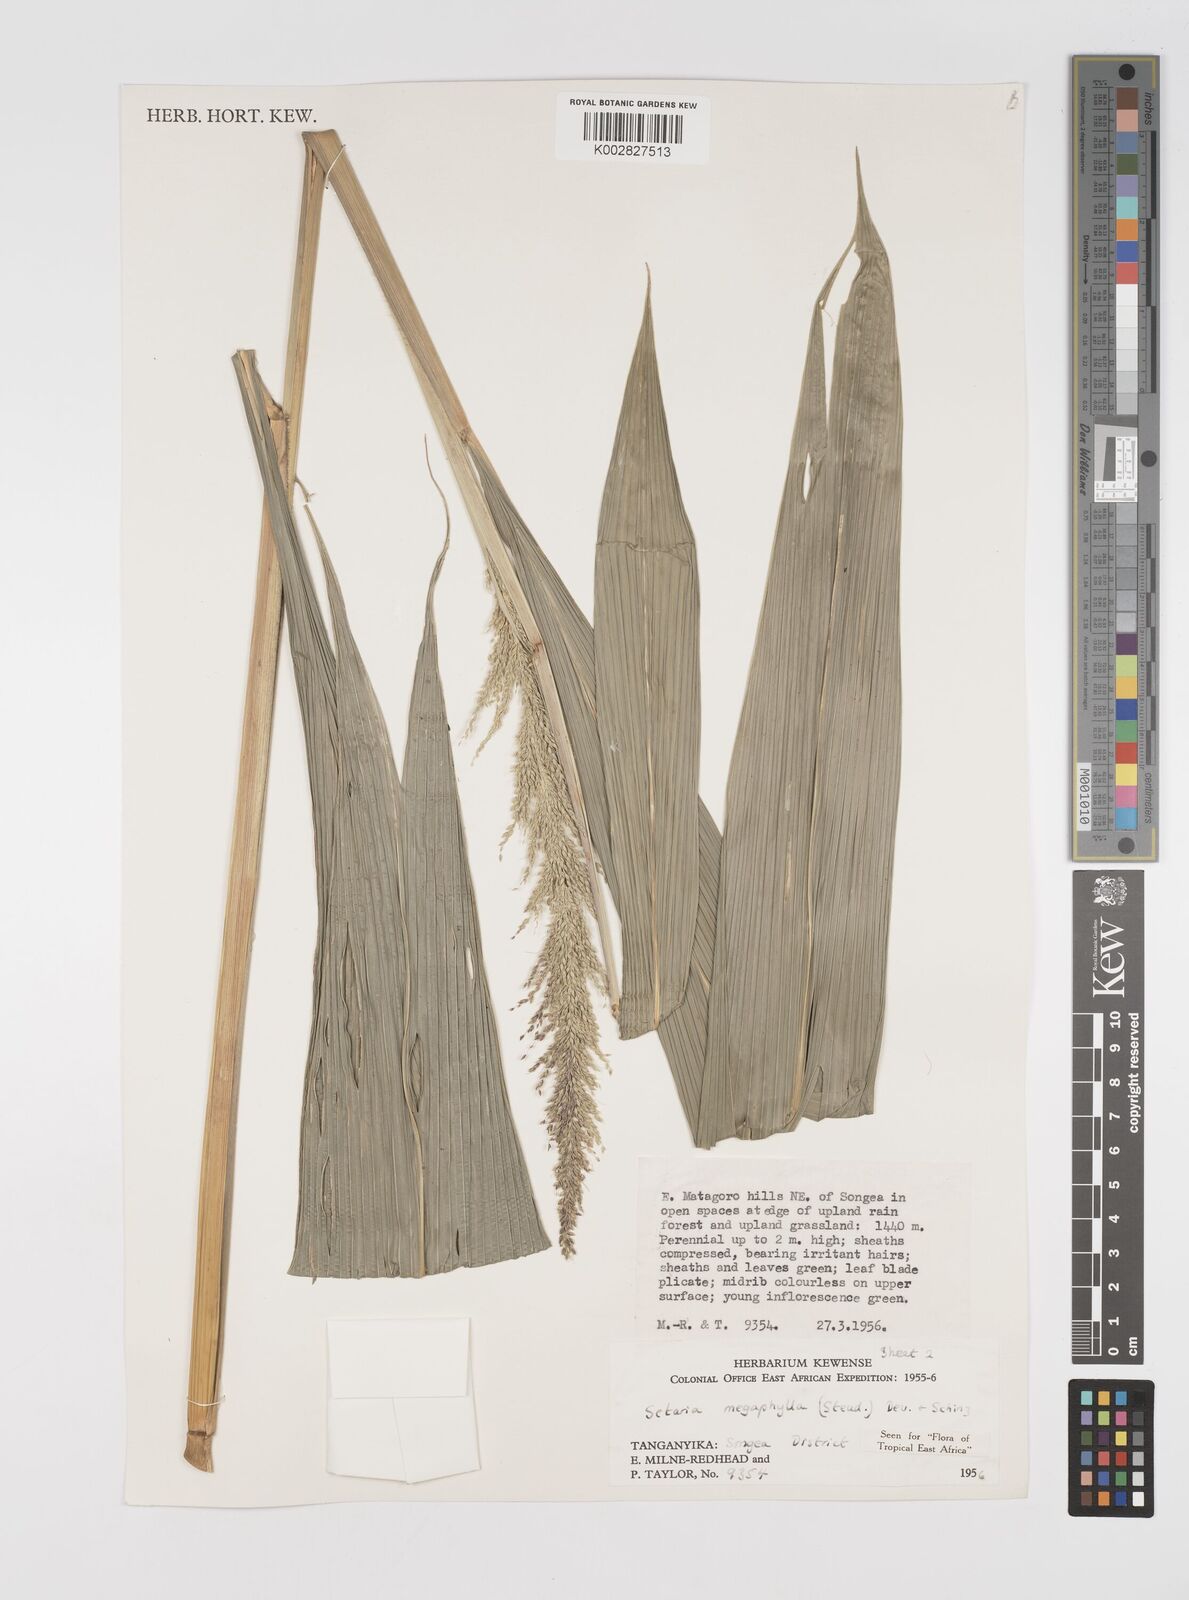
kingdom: Plantae
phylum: Tracheophyta
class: Liliopsida
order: Poales
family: Poaceae
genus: Setaria
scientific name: Setaria megaphylla
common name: Bigleaf bristlegrass
